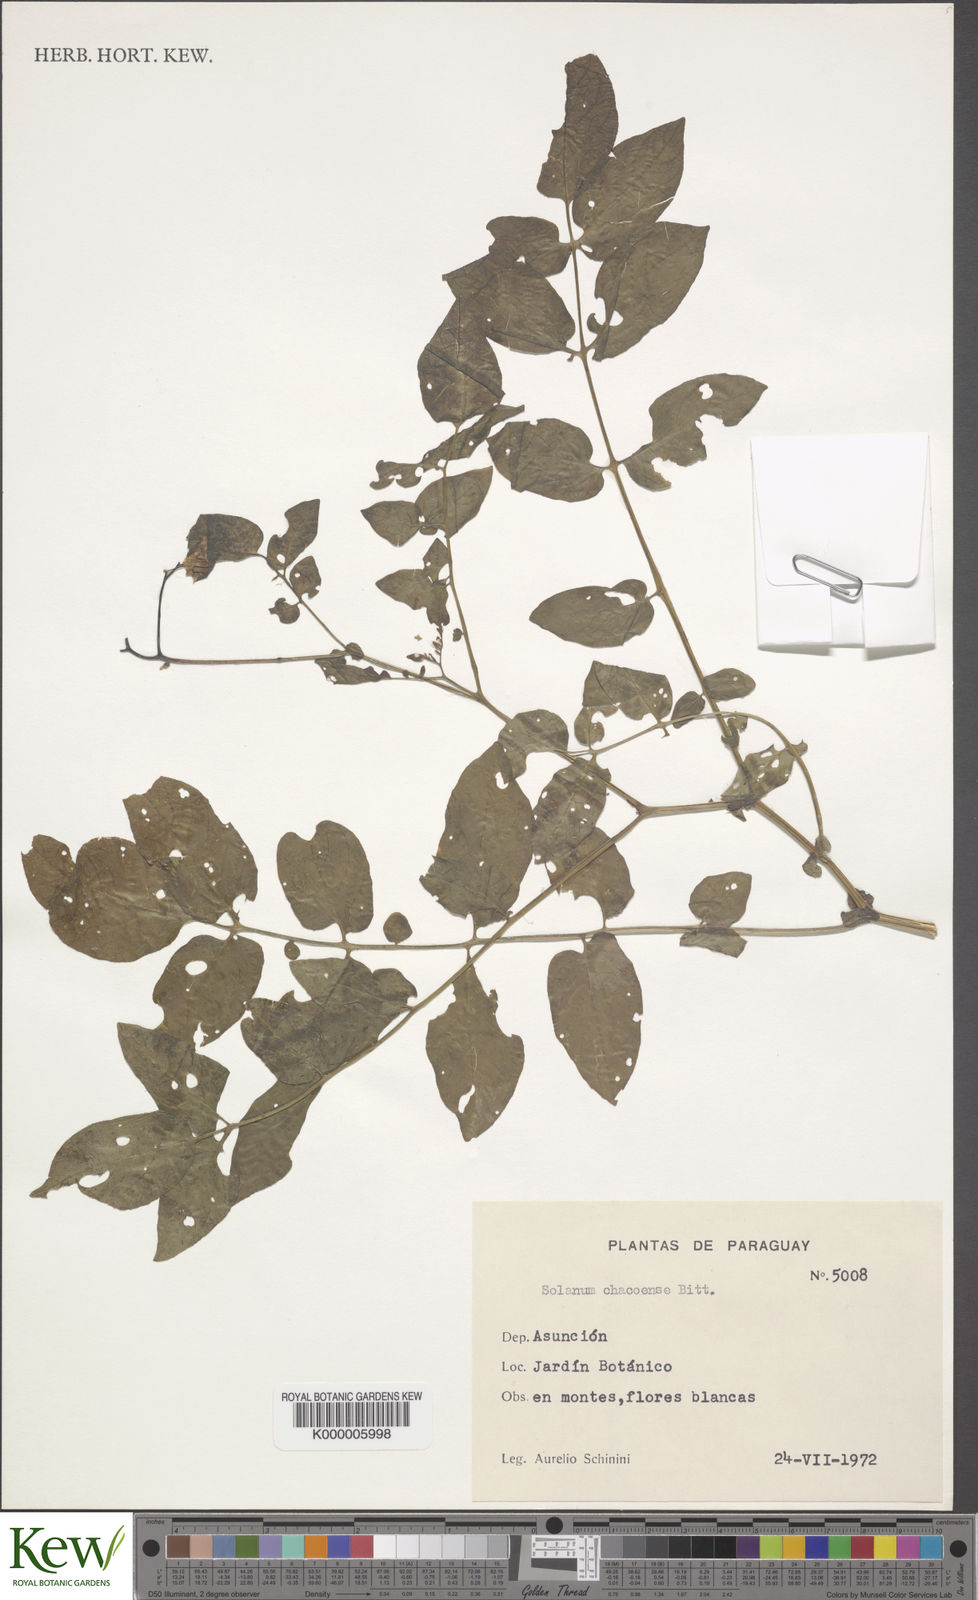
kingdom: Plantae
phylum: Tracheophyta
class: Magnoliopsida
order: Solanales
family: Solanaceae
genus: Solanum
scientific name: Solanum chacoense
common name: Chaco potato
